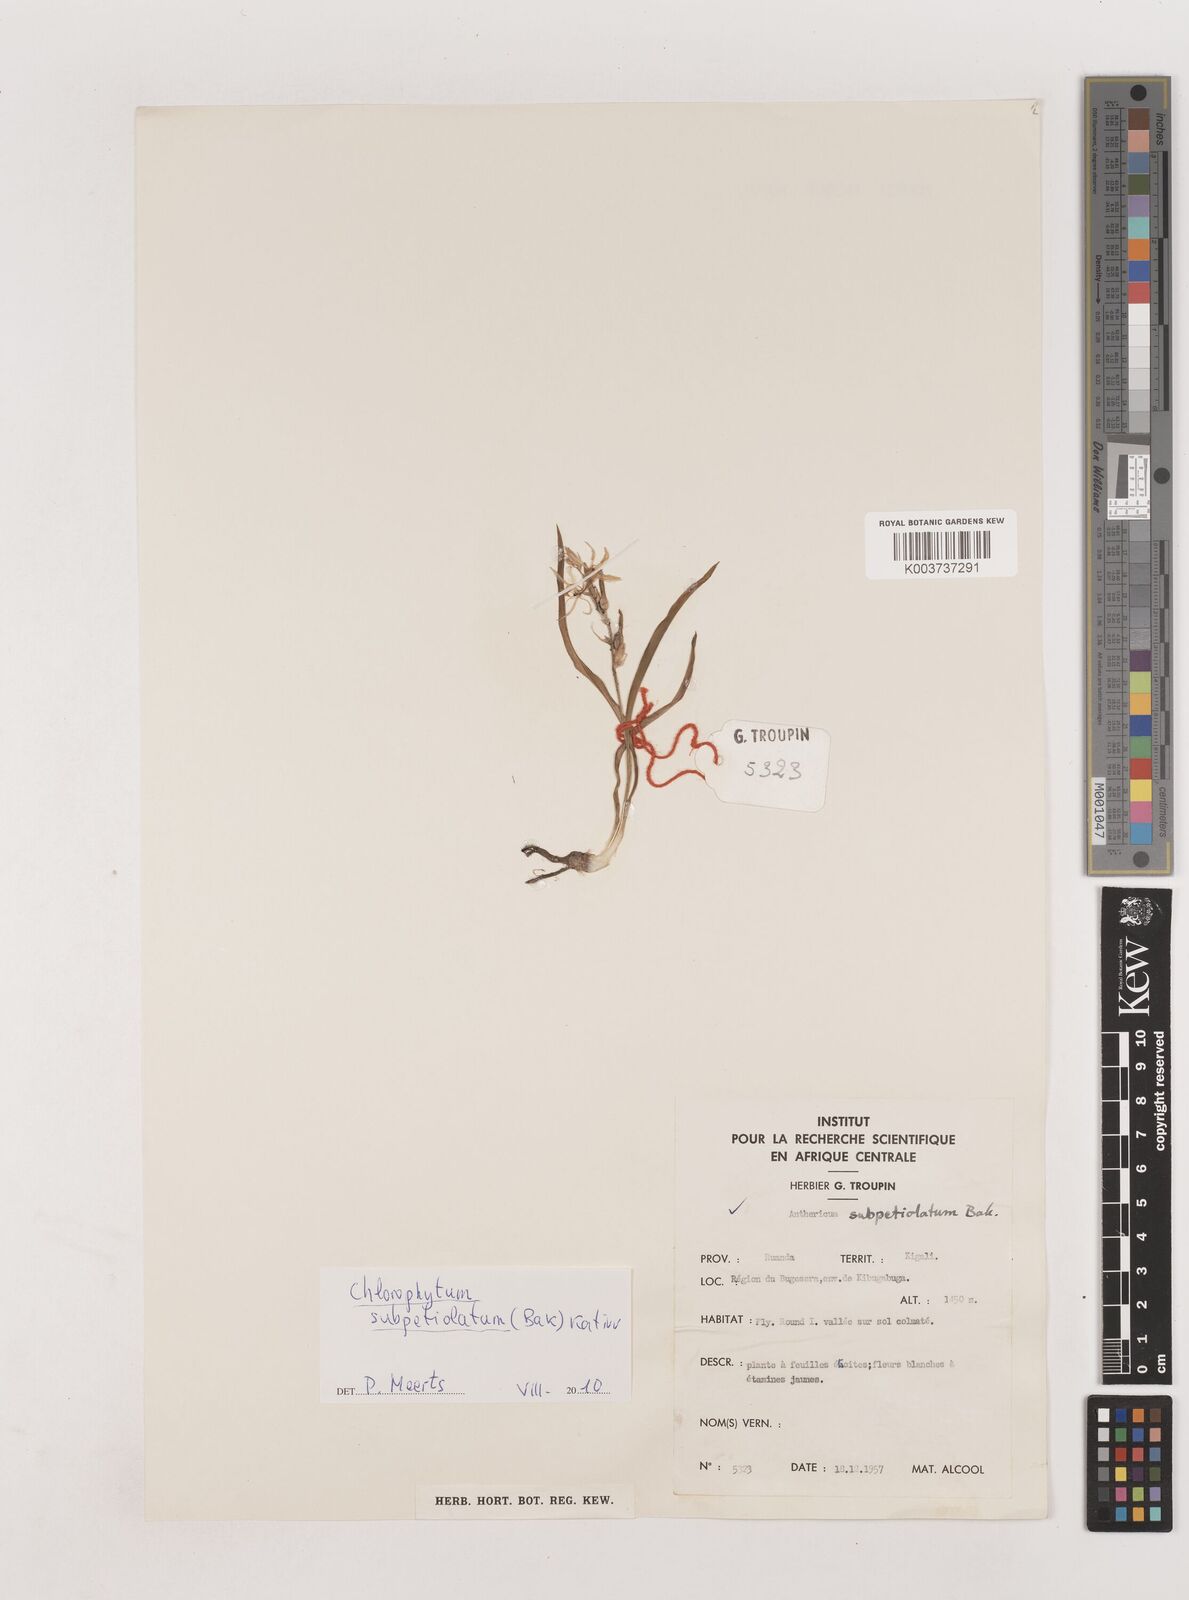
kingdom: Plantae
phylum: Tracheophyta
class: Liliopsida
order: Asparagales
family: Asparagaceae
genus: Chlorophytum
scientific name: Chlorophytum subpetiolatum
